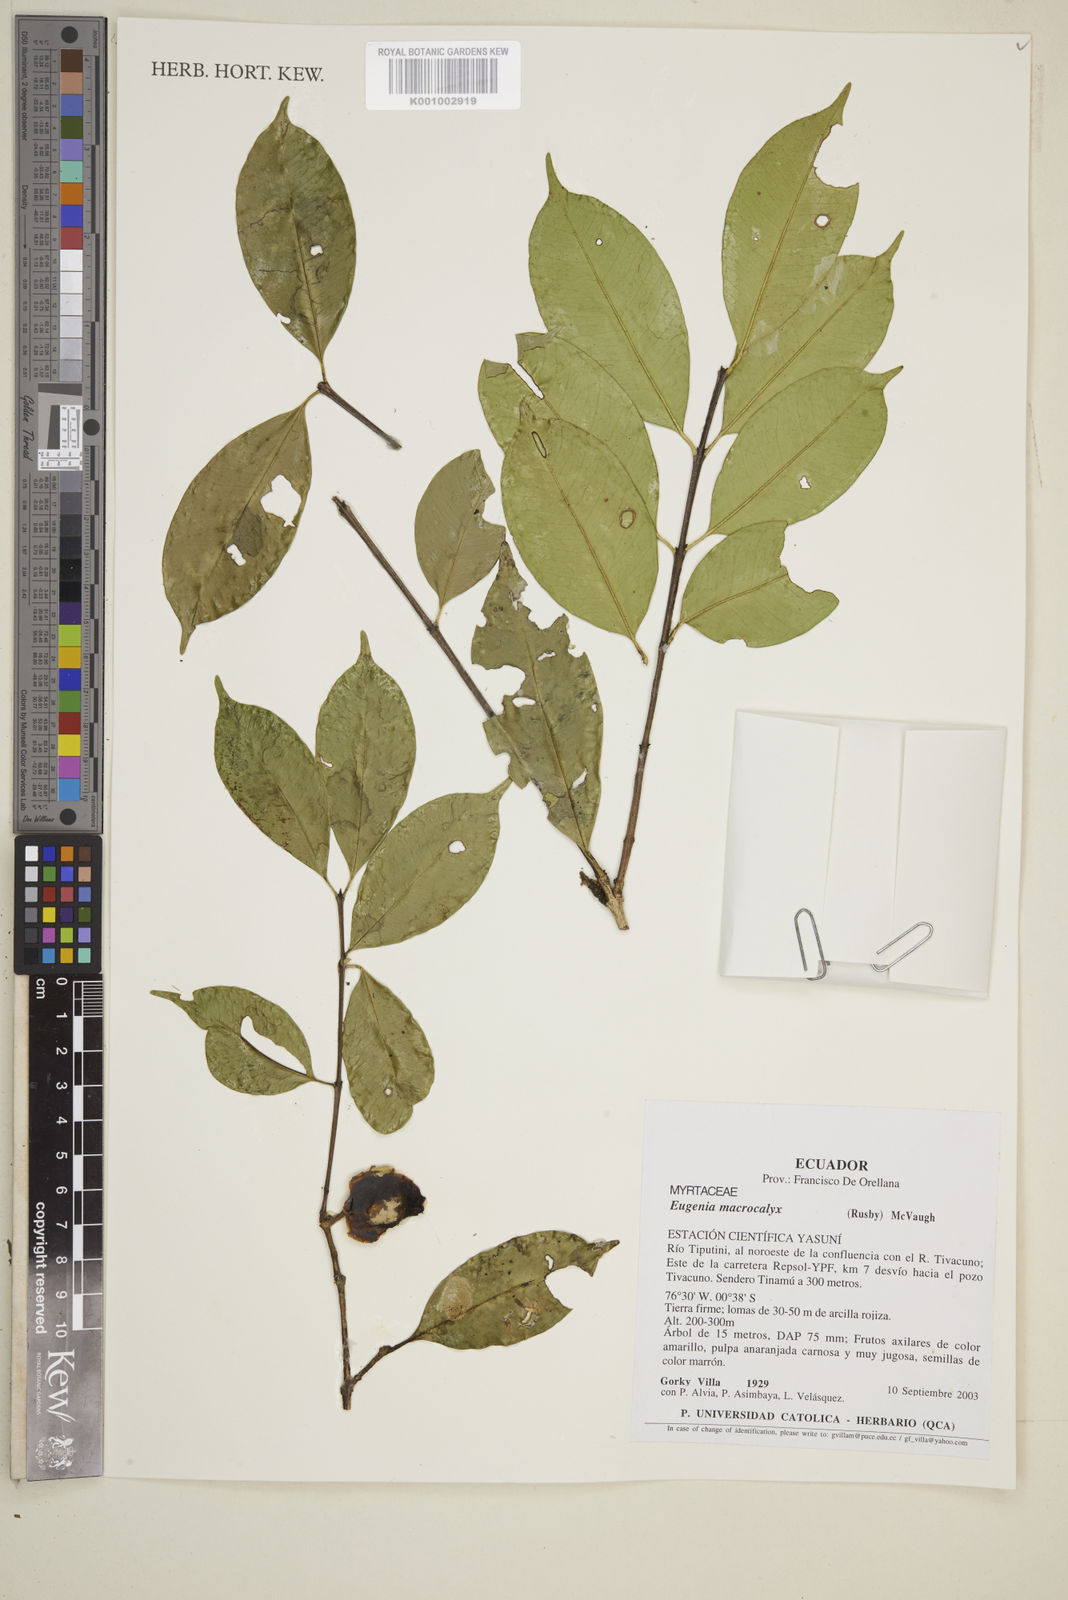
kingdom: Plantae
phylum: Tracheophyta
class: Magnoliopsida
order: Myrtales
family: Myrtaceae
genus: Eugenia
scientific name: Eugenia
